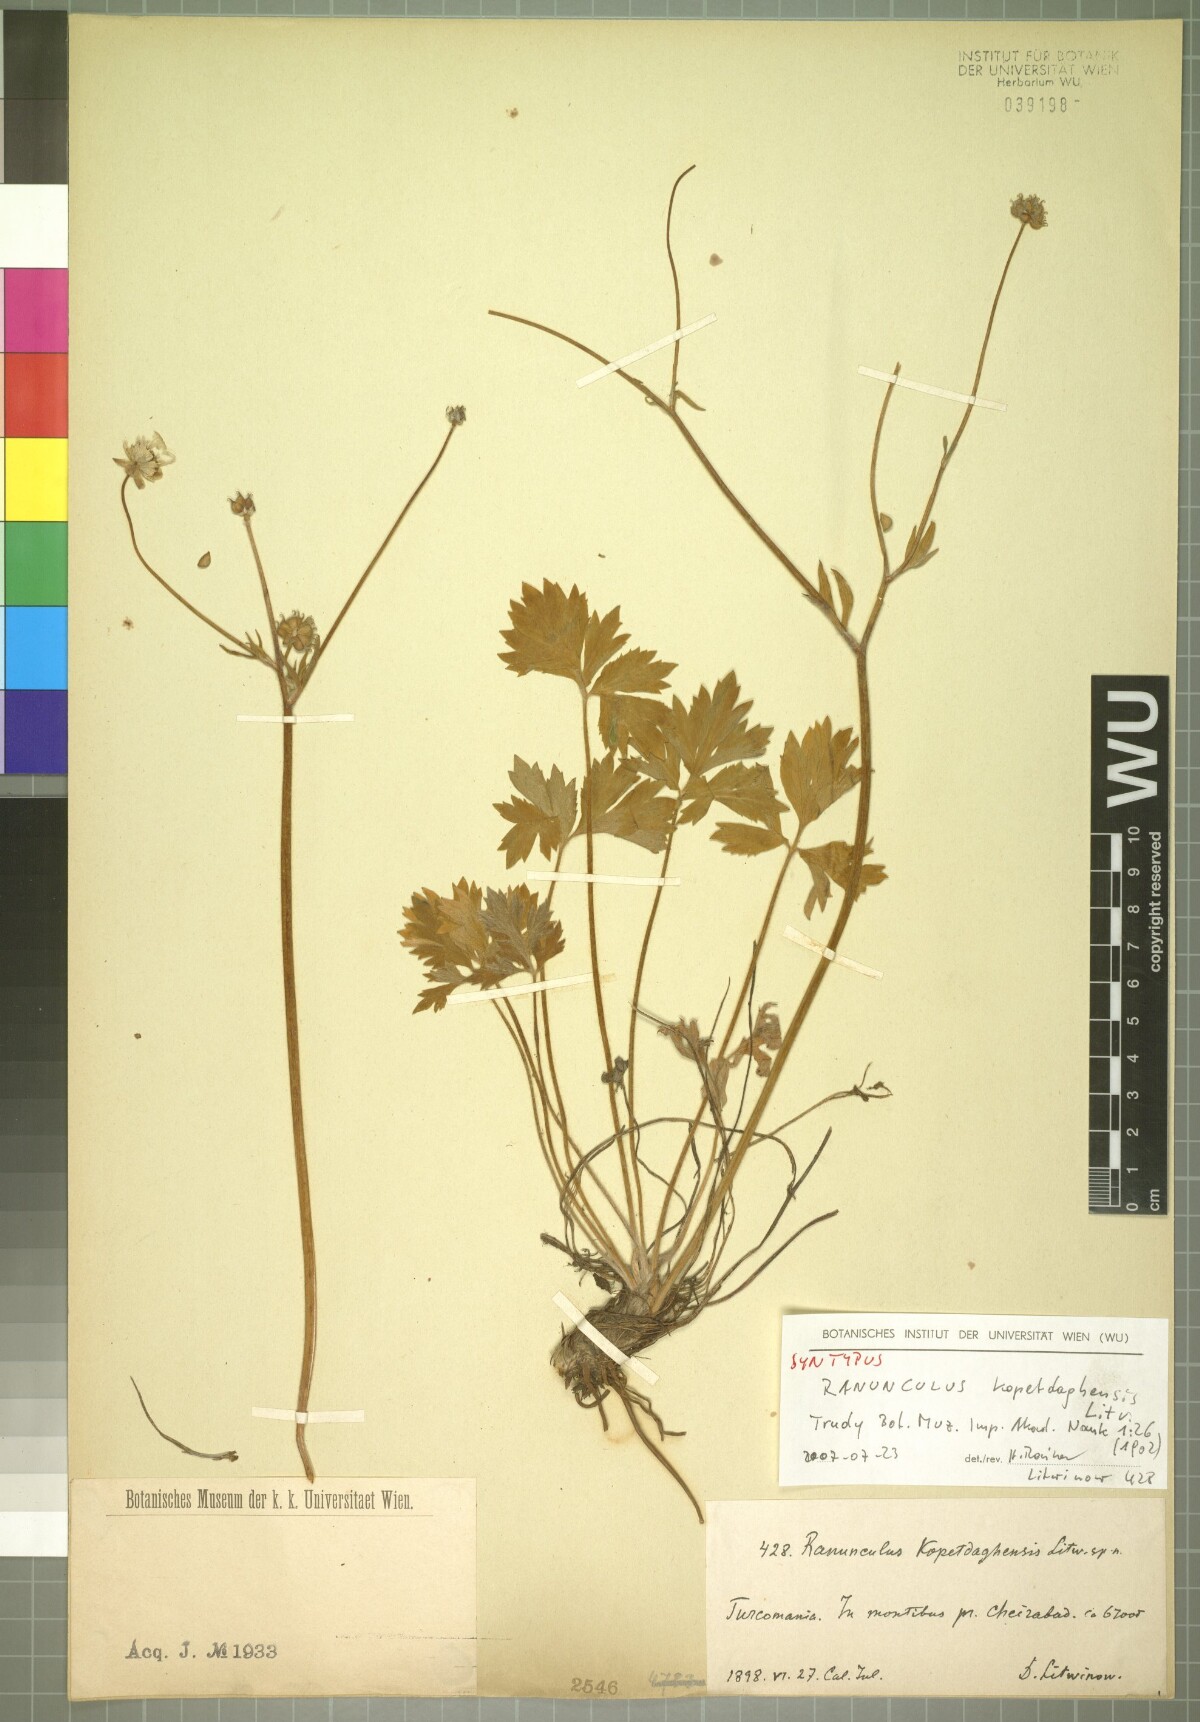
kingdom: Plantae
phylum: Tracheophyta
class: Magnoliopsida
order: Ranunculales
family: Ranunculaceae
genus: Ranunculus
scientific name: Ranunculus kopetdaghensis
